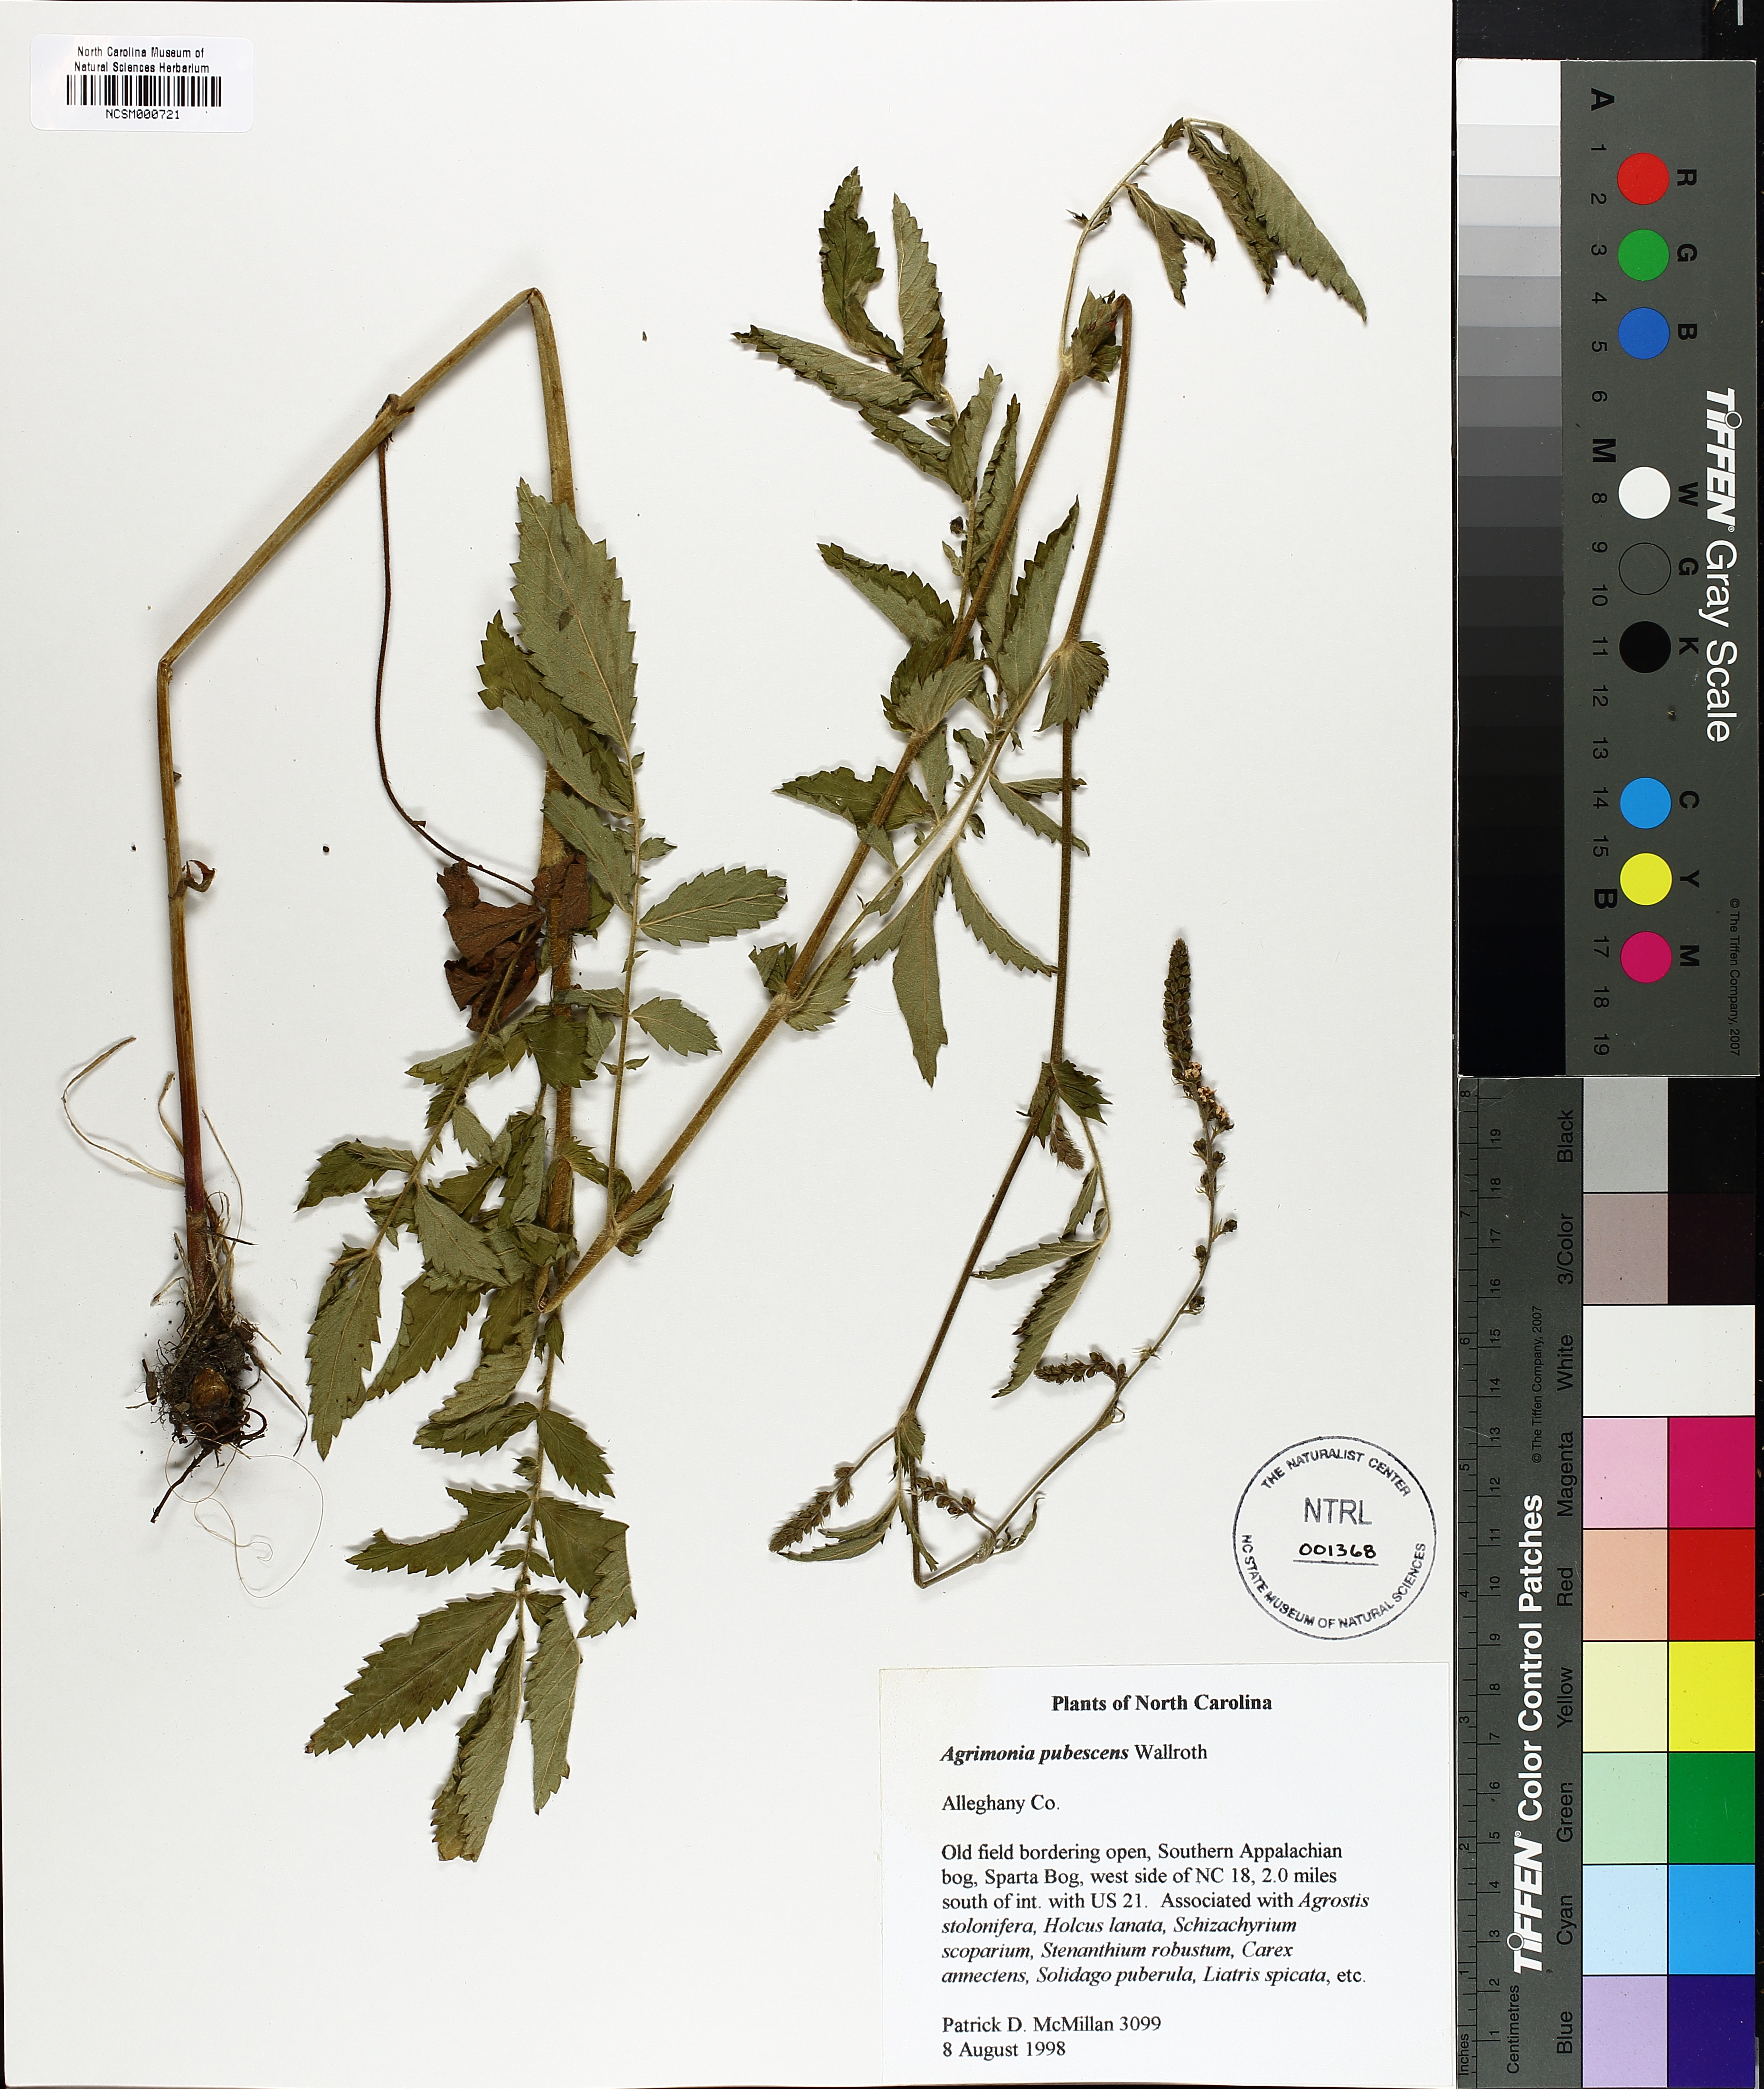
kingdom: Plantae
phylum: Tracheophyta
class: Magnoliopsida
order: Rosales
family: Rosaceae
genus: Agrimonia
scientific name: Agrimonia pubescens
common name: Downy agrimony
